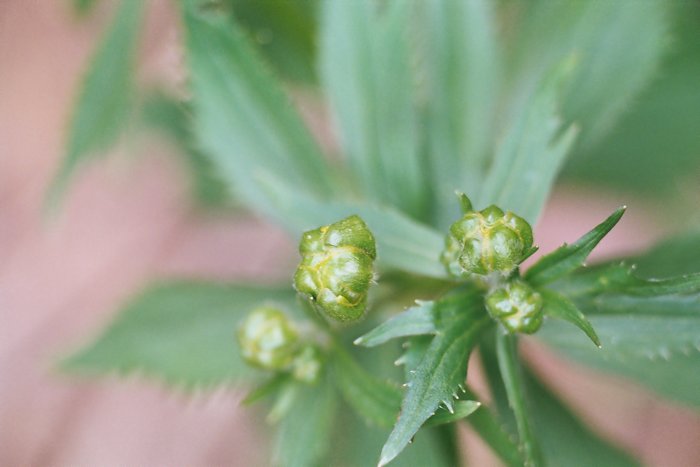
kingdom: Plantae
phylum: Tracheophyta
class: Magnoliopsida
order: Ranunculales
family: Ranunculaceae
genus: Trollius
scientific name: Trollius europaeus
